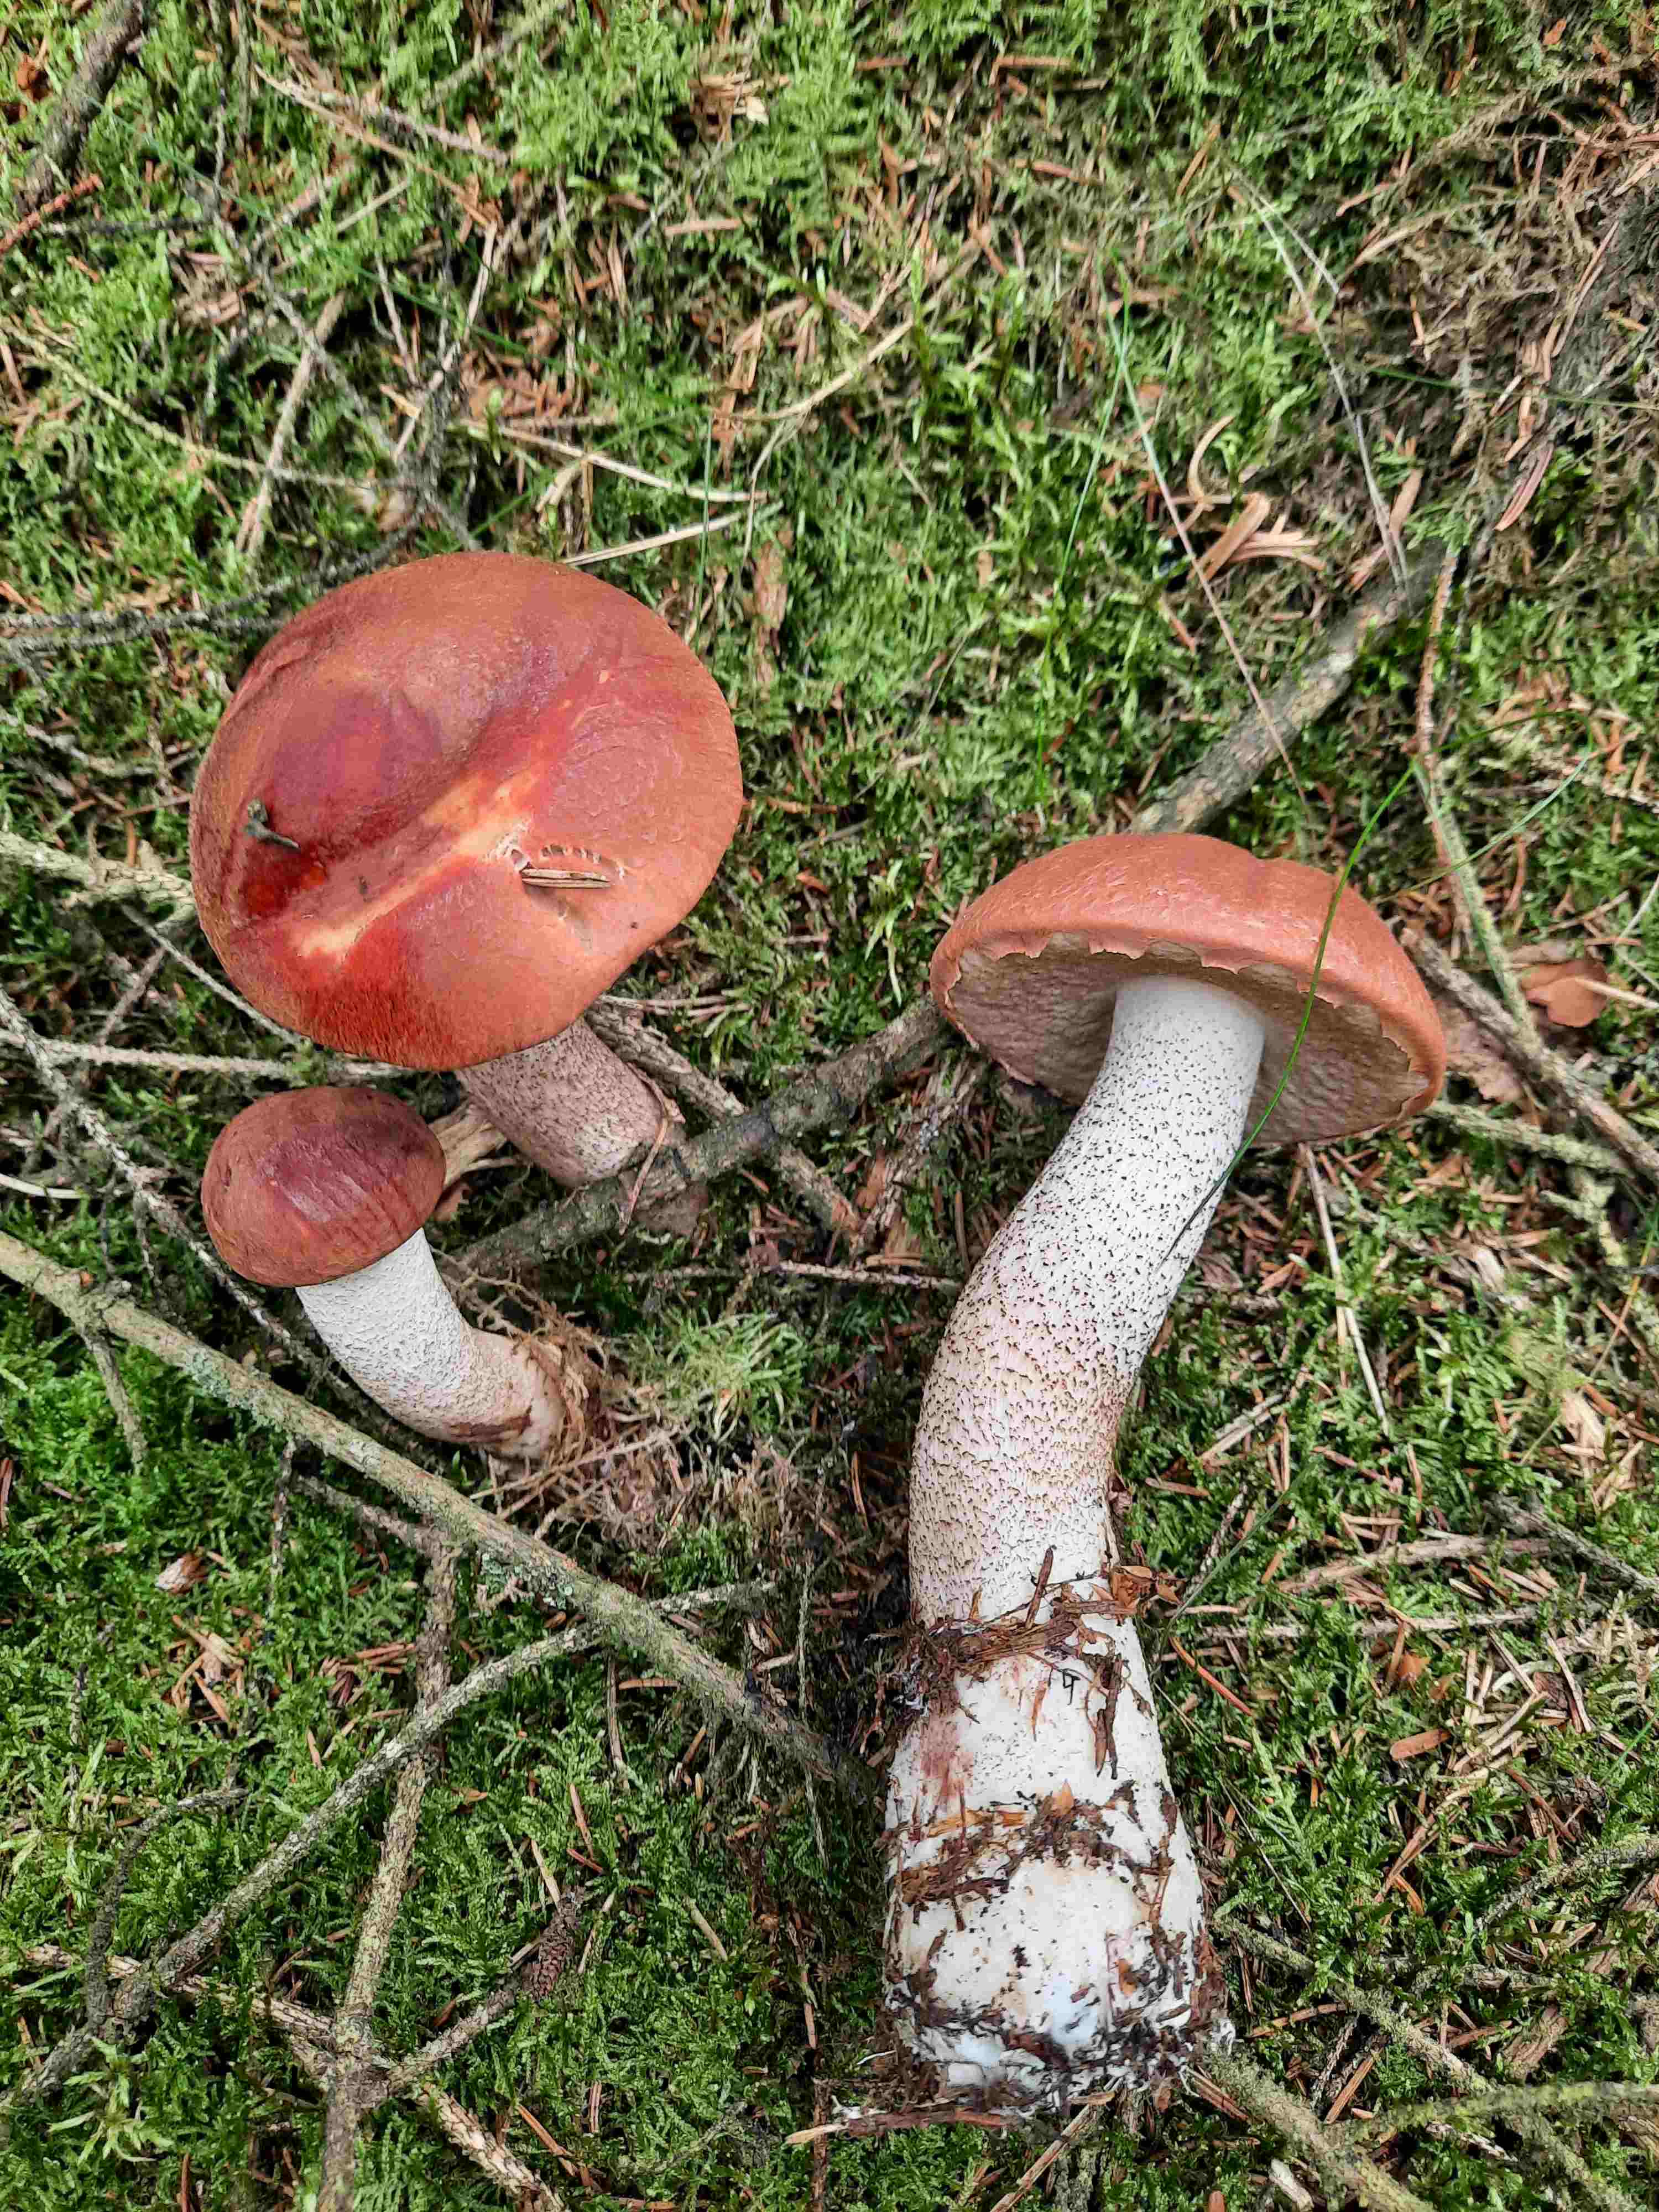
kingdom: Fungi
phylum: Basidiomycota
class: Agaricomycetes
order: Boletales
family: Boletaceae
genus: Leccinum
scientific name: Leccinum vulpinum
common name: fyrre-skælrørhat
